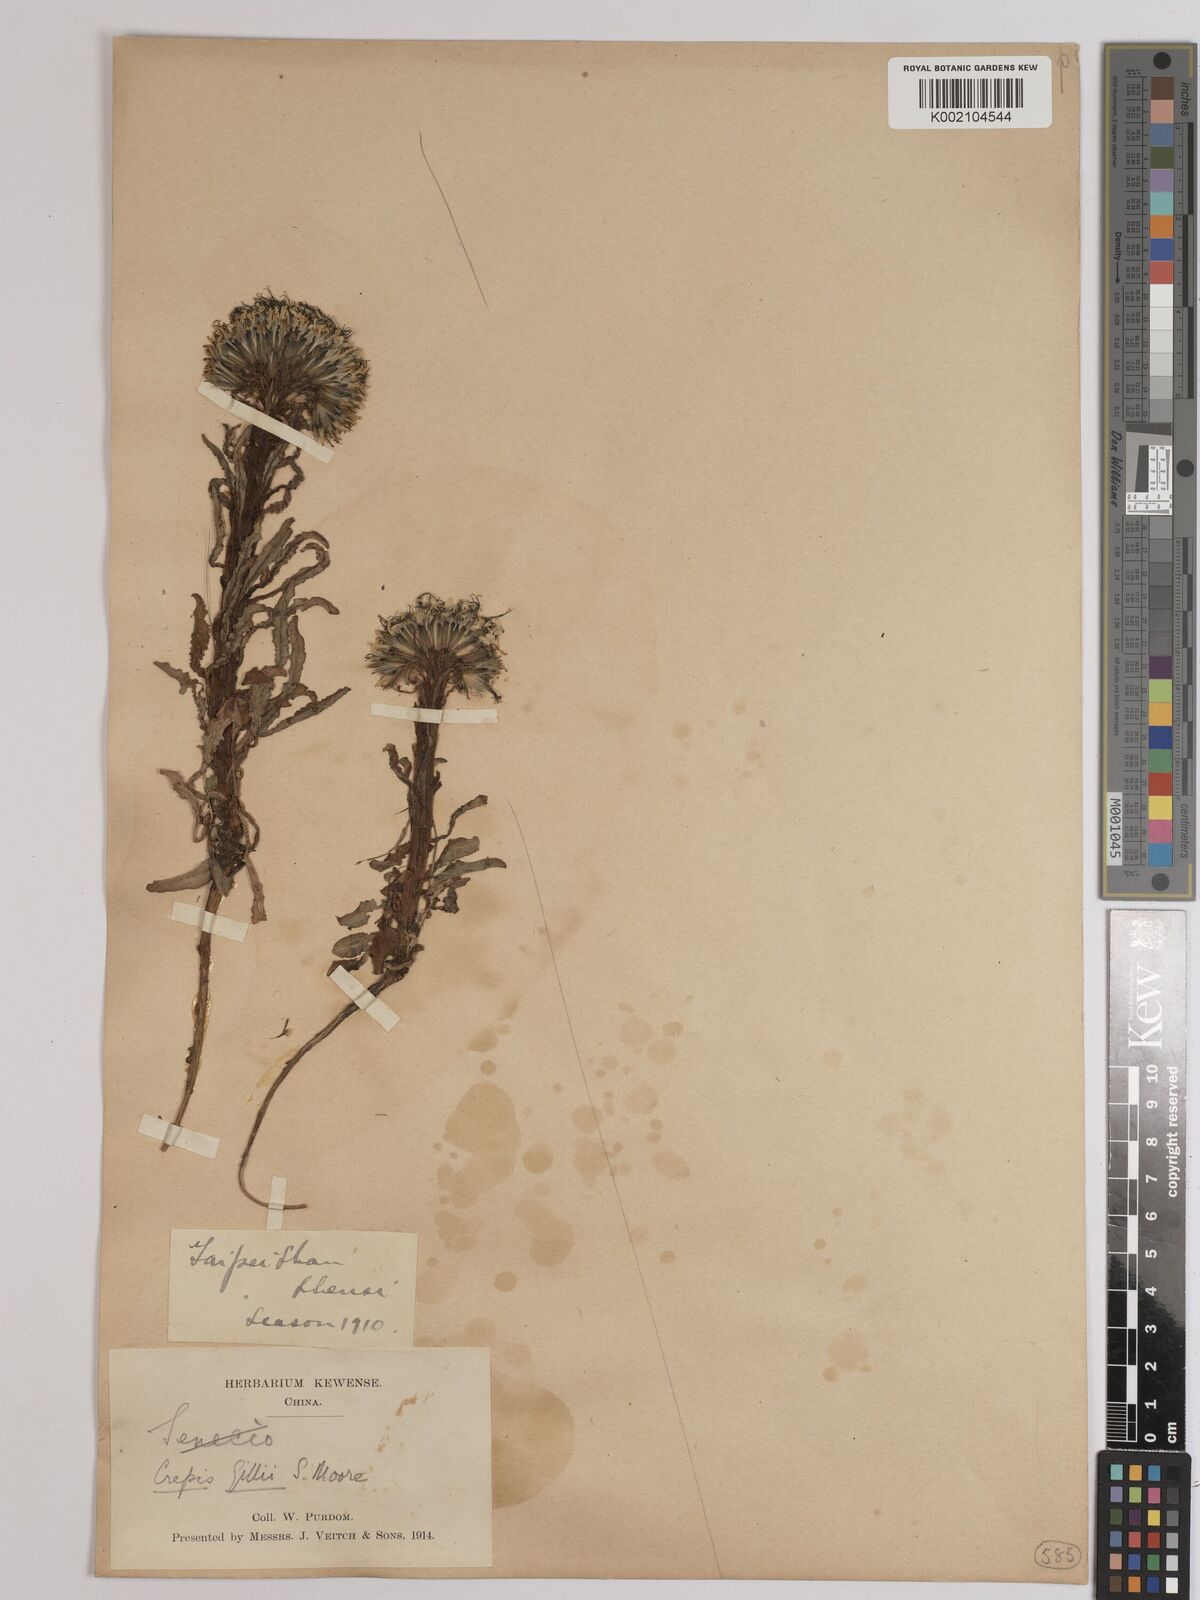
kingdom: Plantae
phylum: Tracheophyta
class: Magnoliopsida
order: Asterales
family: Asteraceae
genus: Soroseris
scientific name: Soroseris hookeriana
